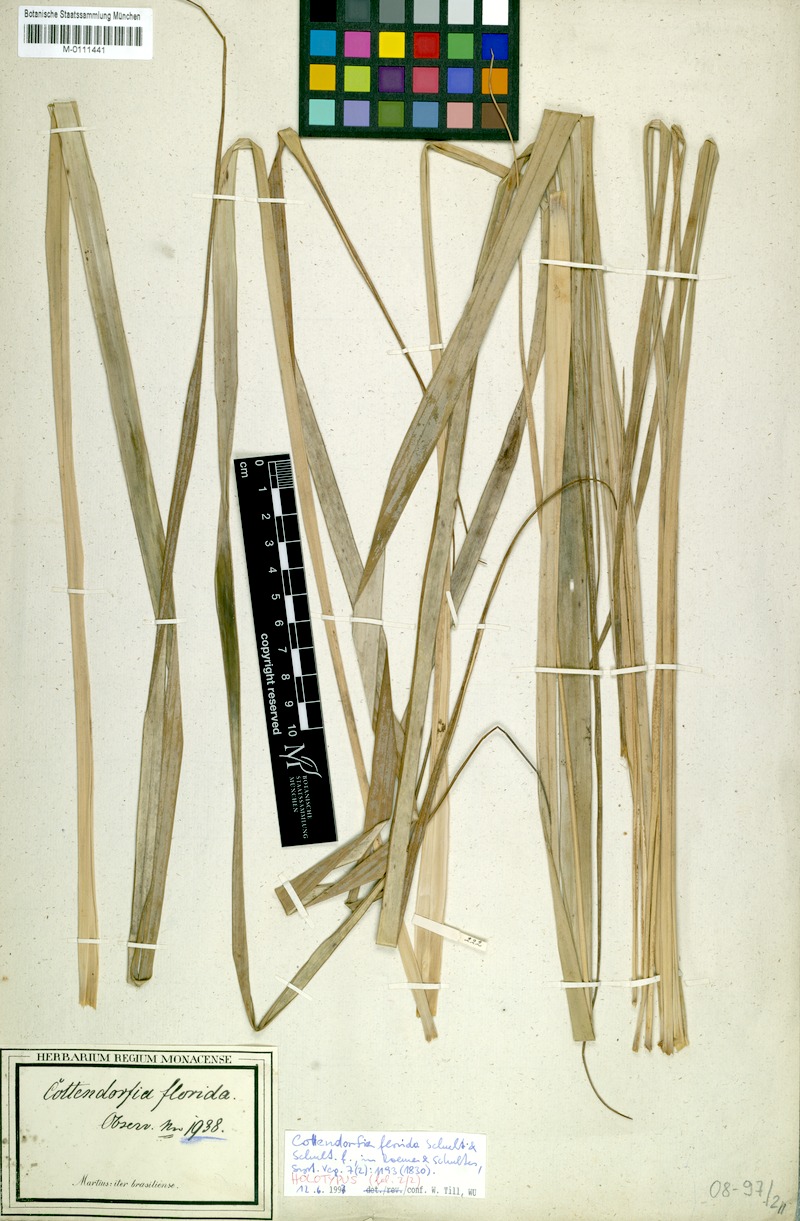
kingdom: Plantae
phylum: Tracheophyta
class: Liliopsida
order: Poales
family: Bromeliaceae
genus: Cottendorfia
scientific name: Cottendorfia florida
